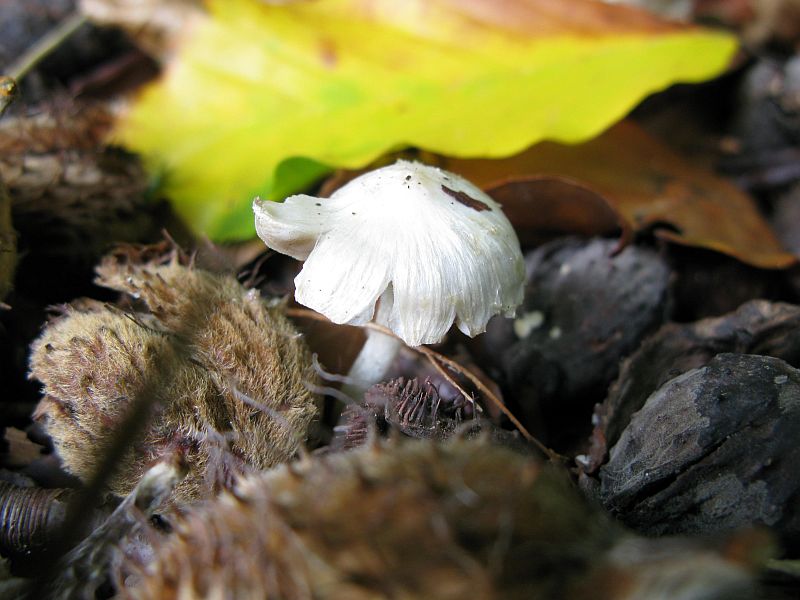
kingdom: Fungi
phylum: Basidiomycota
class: Agaricomycetes
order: Agaricales
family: Inocybaceae
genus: Inocybe
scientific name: Inocybe
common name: almindelig trævlhat
